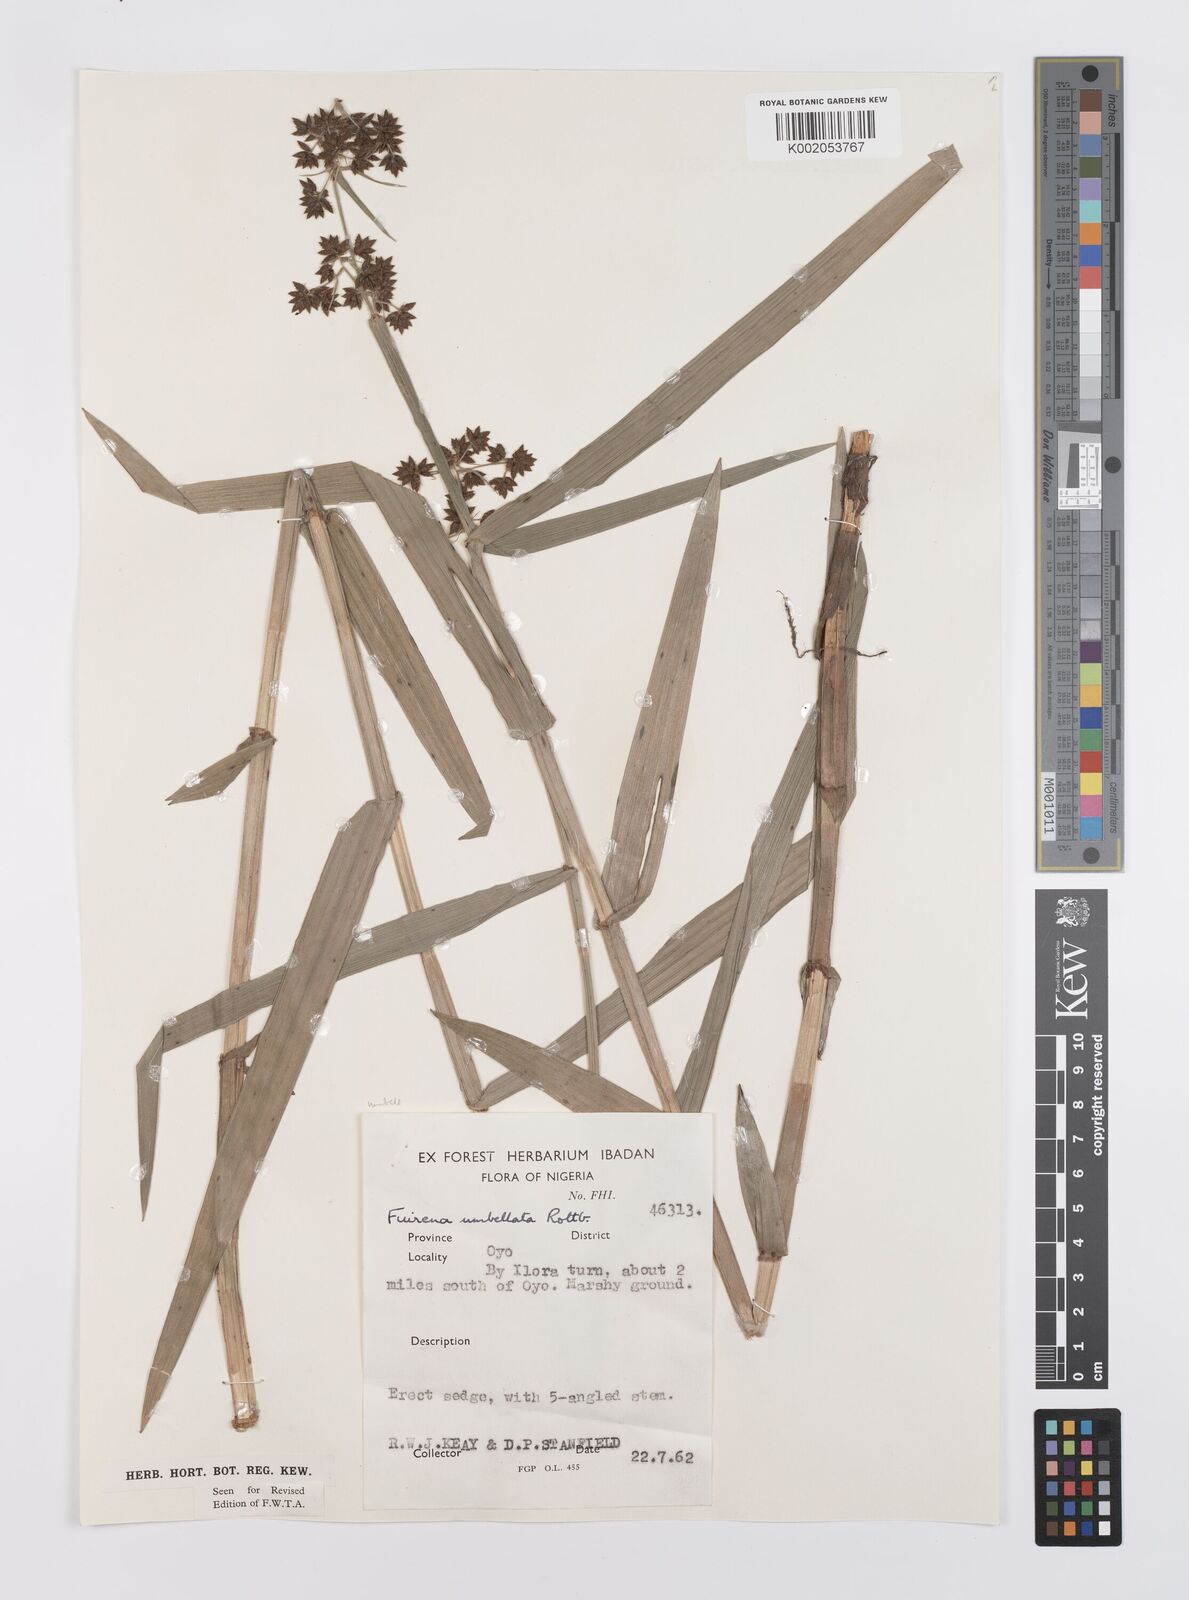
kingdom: Plantae
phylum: Tracheophyta
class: Liliopsida
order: Poales
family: Cyperaceae
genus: Fuirena
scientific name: Fuirena umbellata
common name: Yefen
